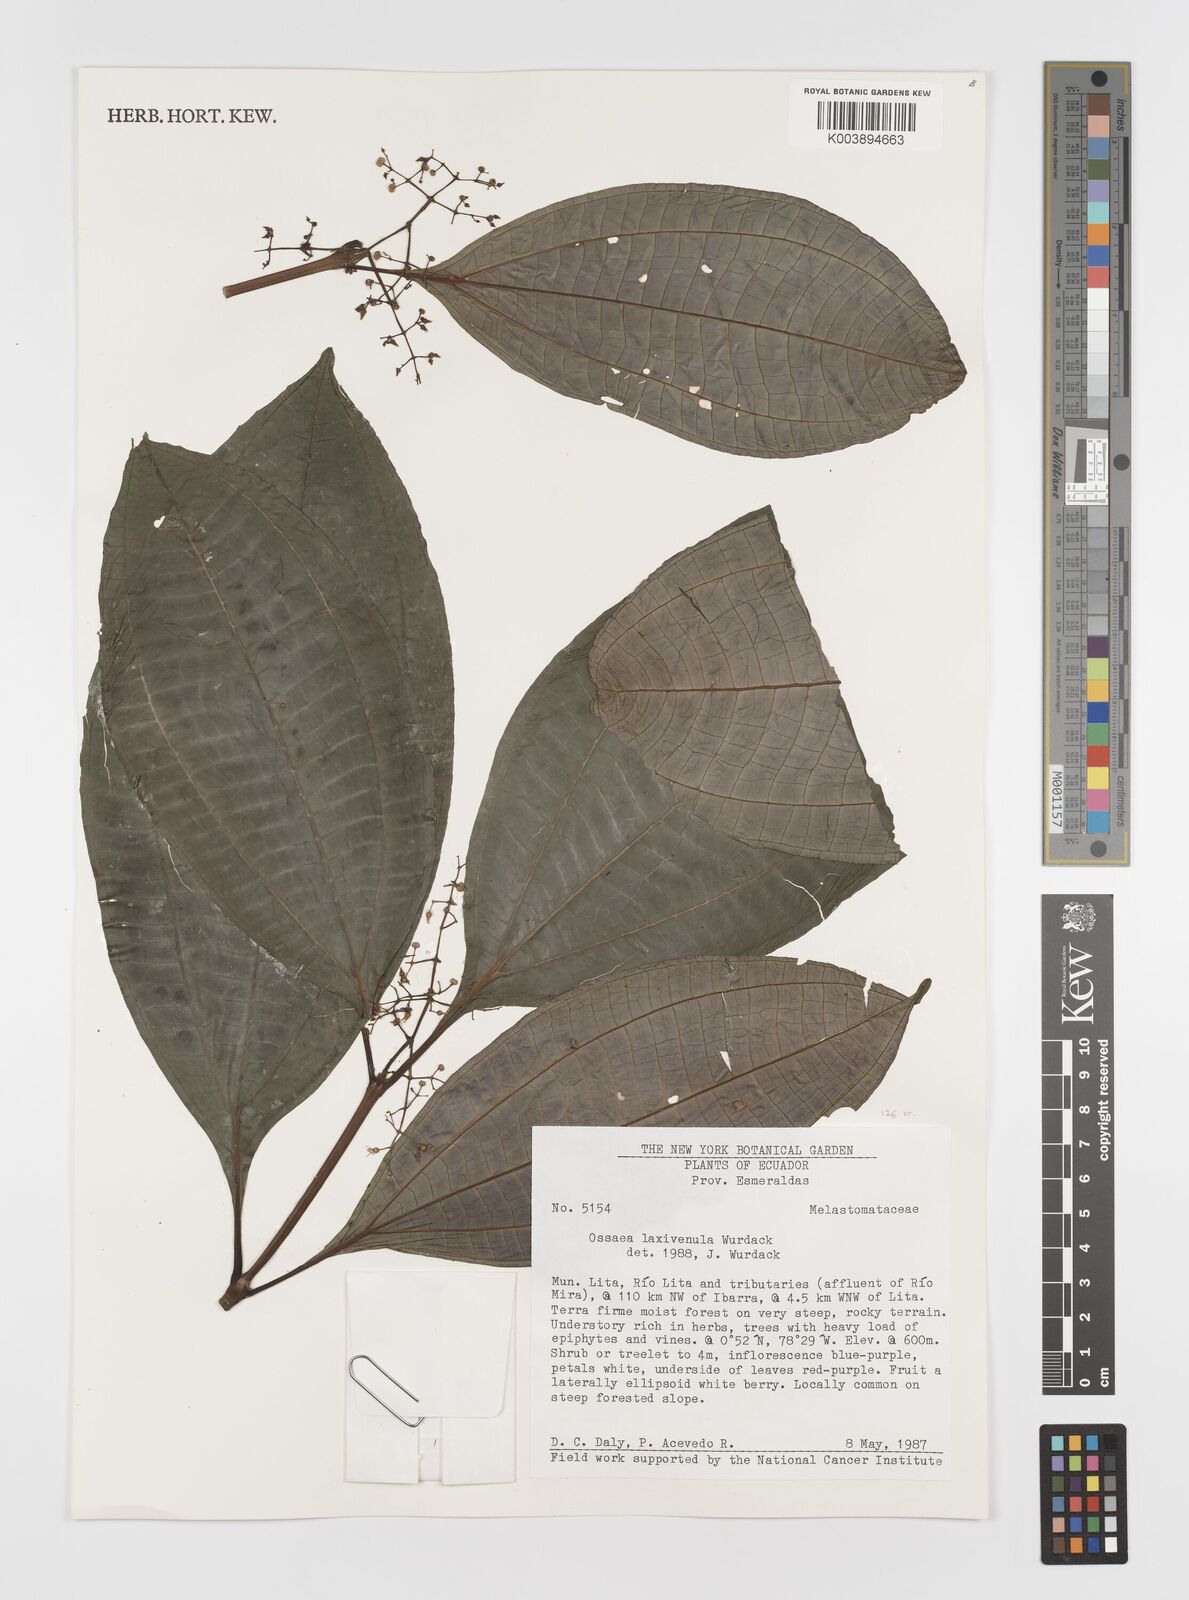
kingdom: Plantae
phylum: Tracheophyta
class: Magnoliopsida
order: Myrtales
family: Melastomataceae
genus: Miconia
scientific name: Miconia laxivenula
